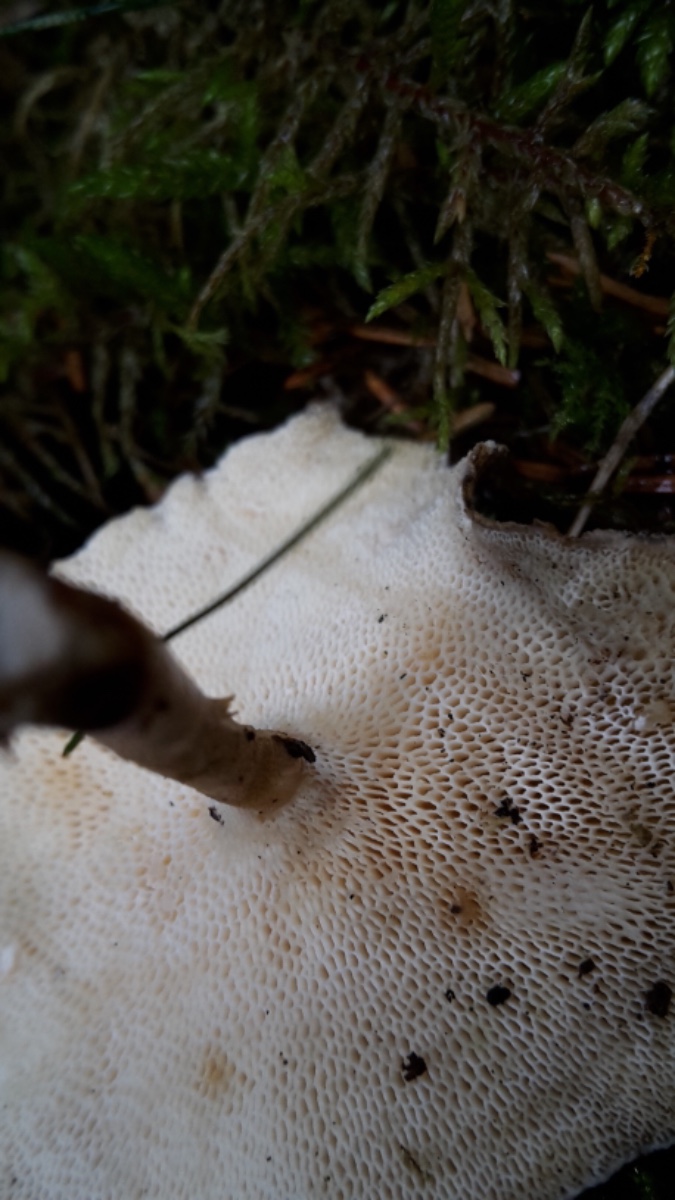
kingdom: Fungi
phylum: Basidiomycota
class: Agaricomycetes
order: Polyporales
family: Polyporaceae
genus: Lentinus
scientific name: Lentinus brumalis
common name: vinter-stilkporesvamp
